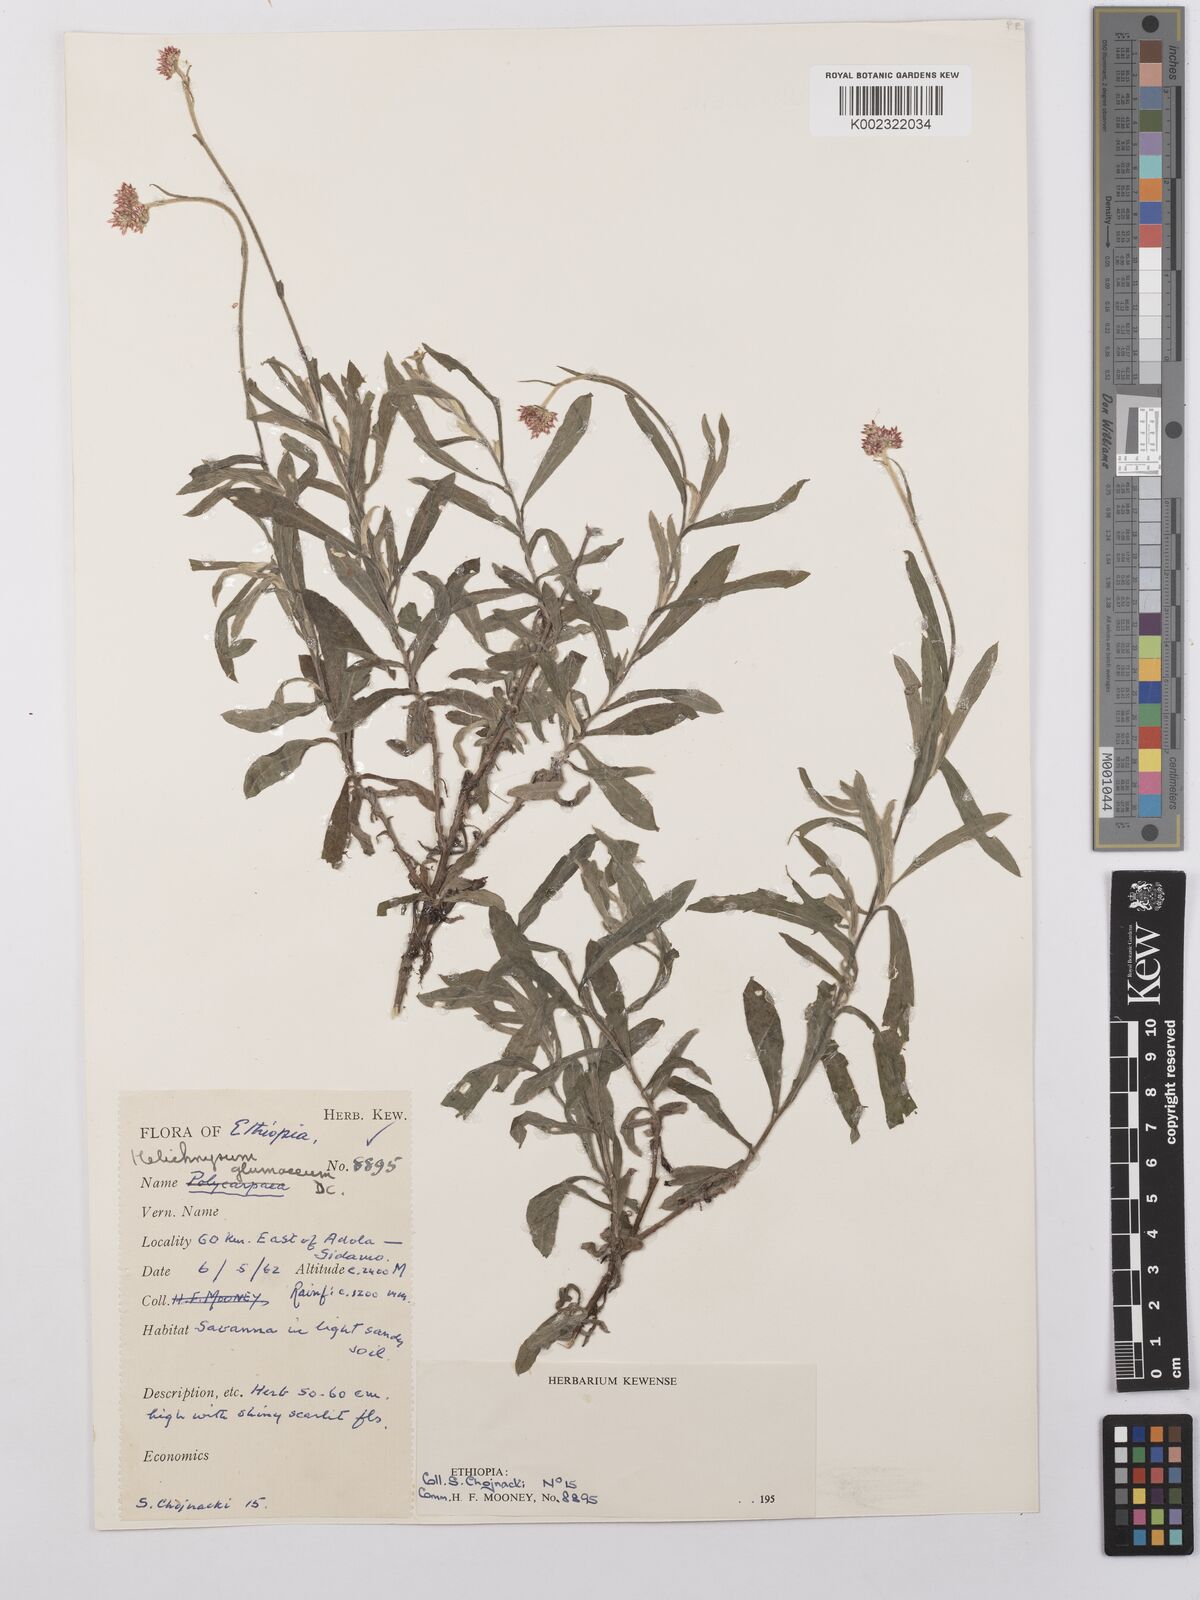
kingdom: Plantae
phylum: Tracheophyta
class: Magnoliopsida
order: Asterales
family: Asteraceae
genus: Helichrysum
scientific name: Helichrysum glumaceum
